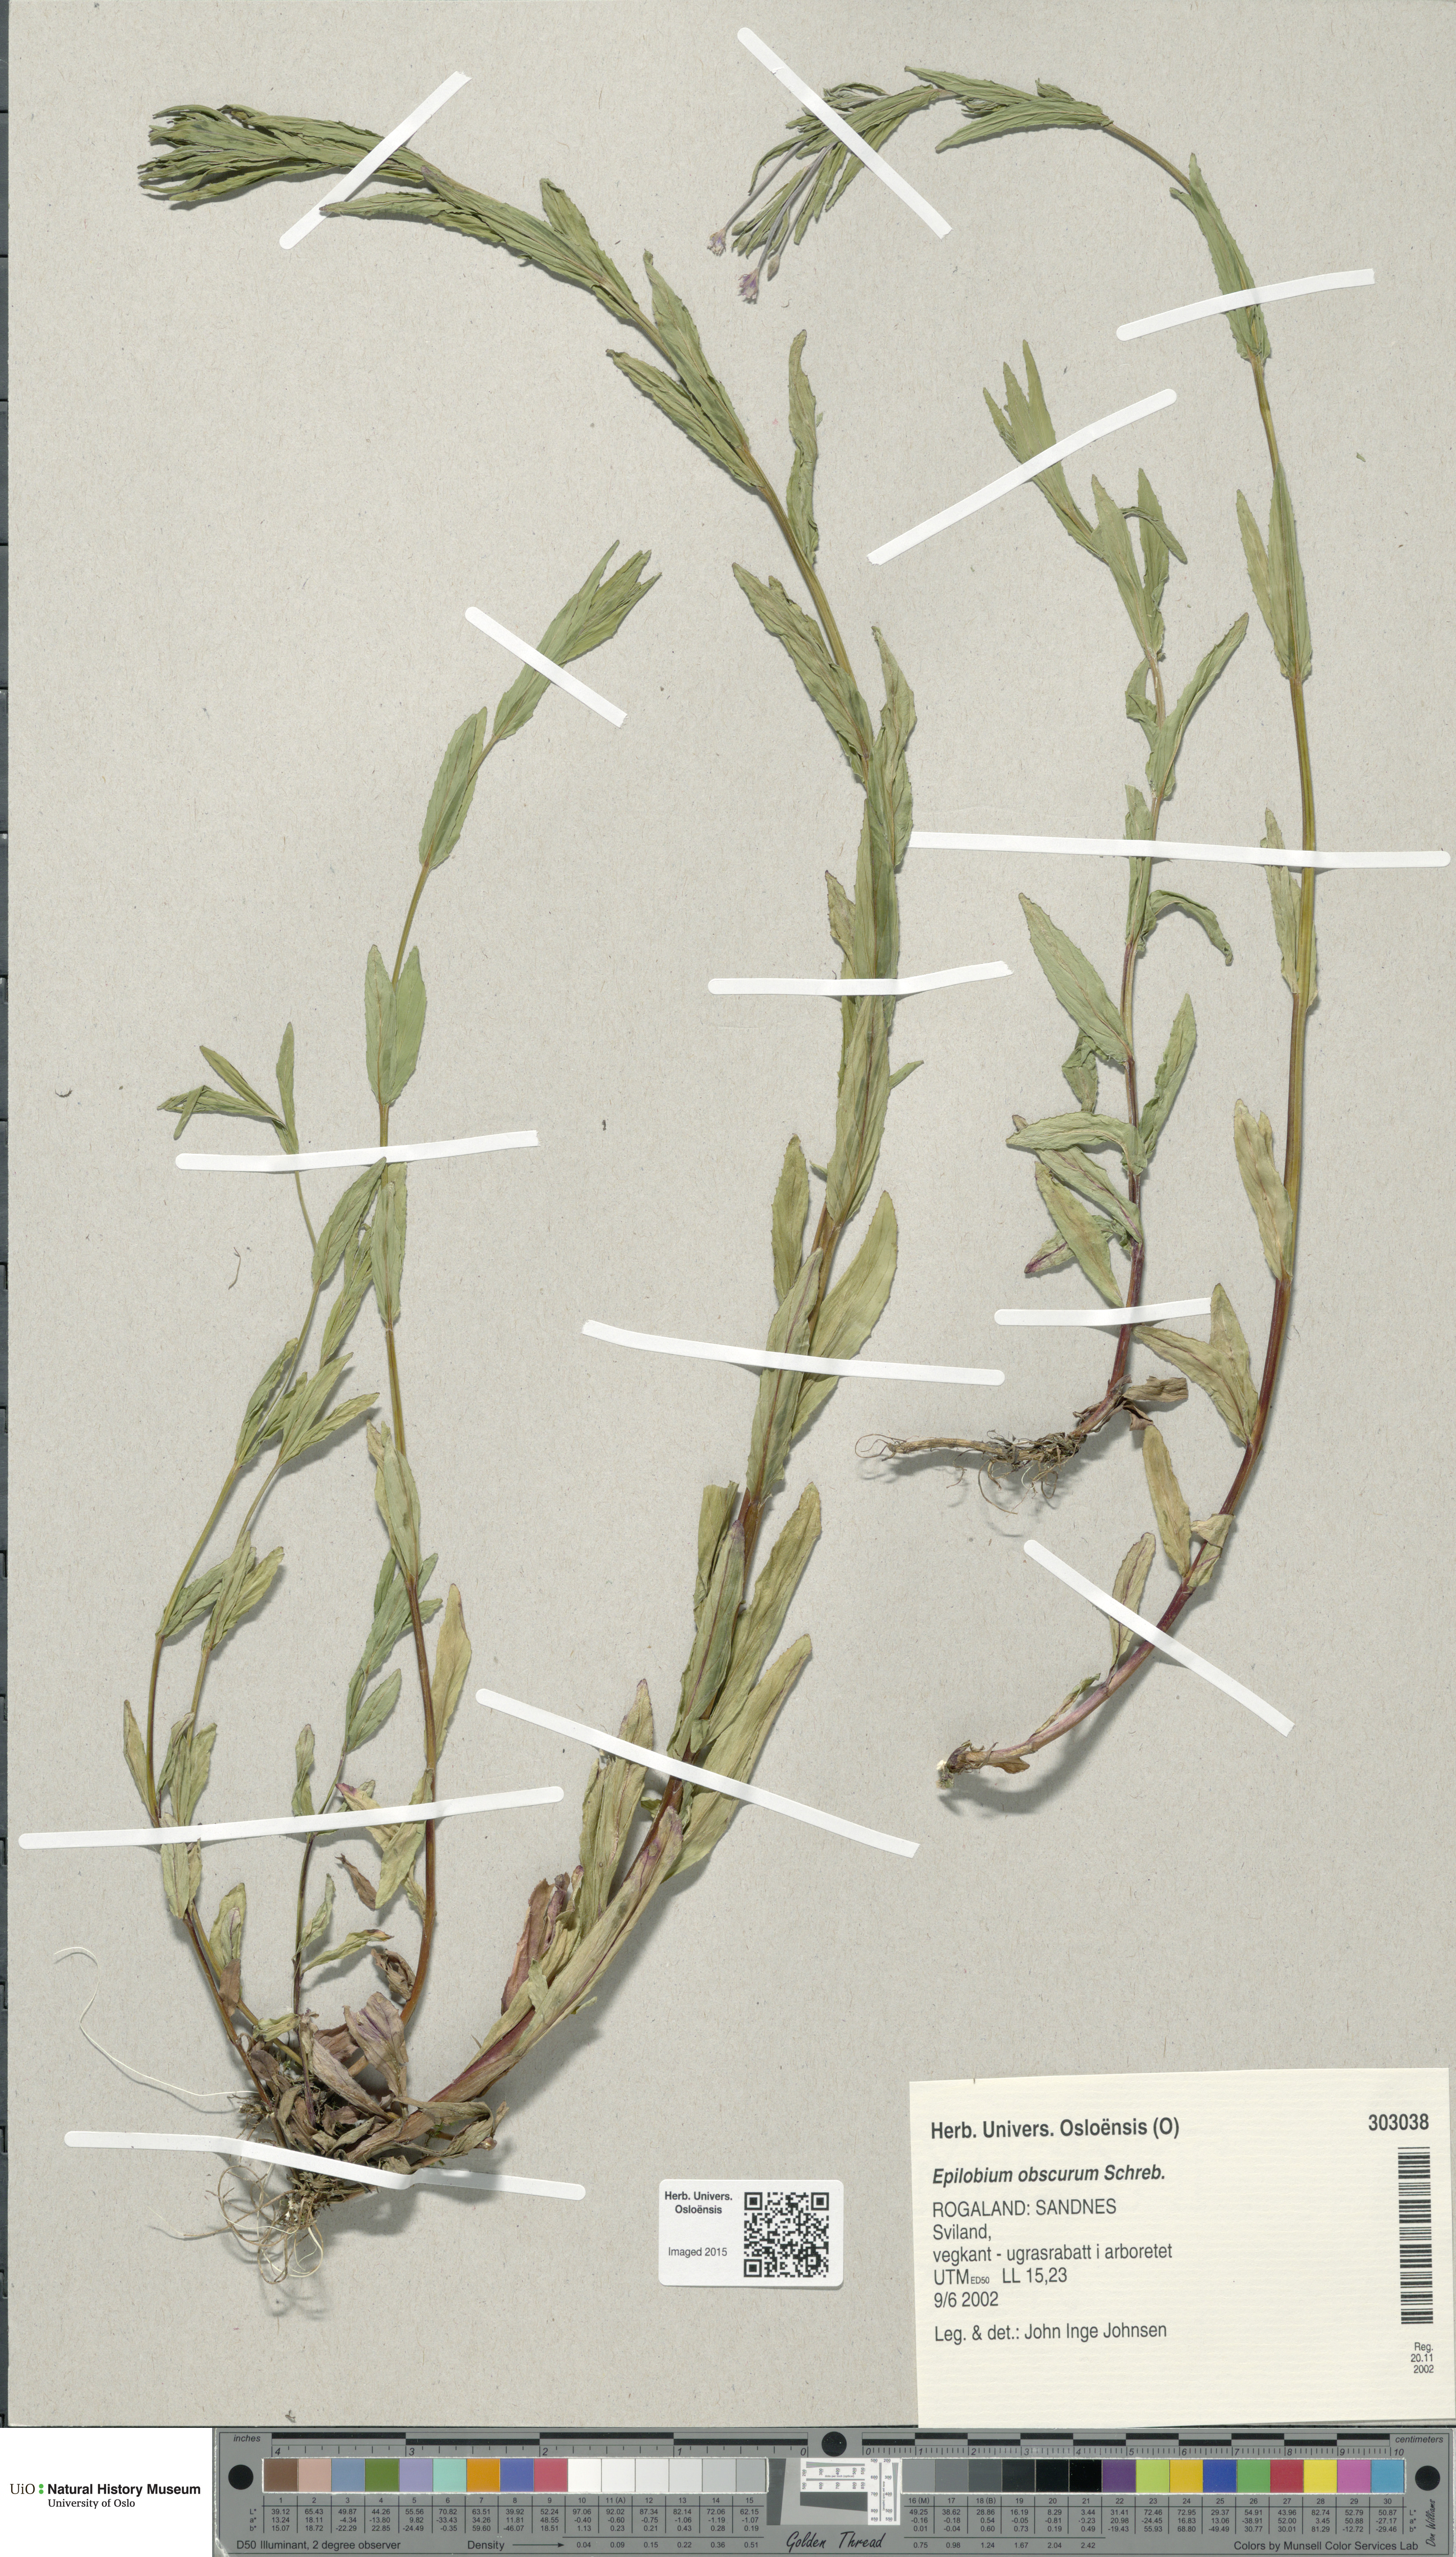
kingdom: Plantae
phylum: Tracheophyta
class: Magnoliopsida
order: Myrtales
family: Onagraceae
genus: Epilobium
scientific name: Epilobium obscurum
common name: Short-fruited willowherb
